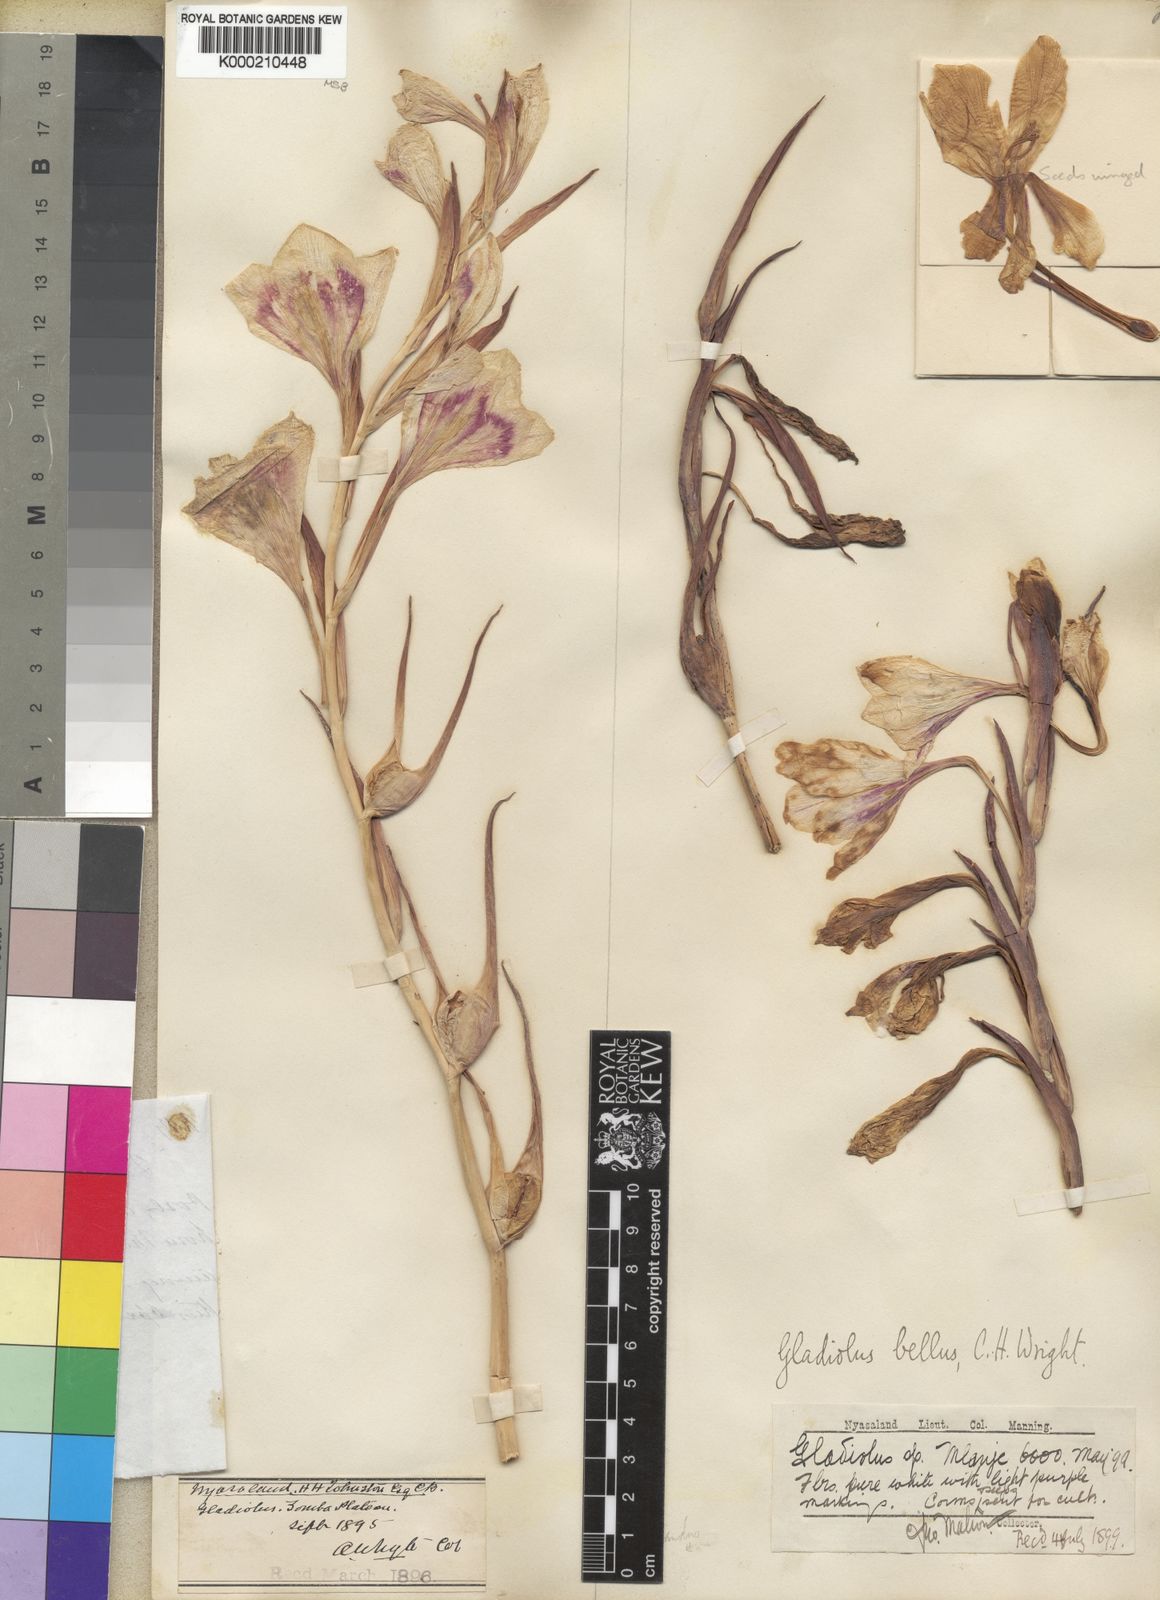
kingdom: Plantae
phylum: Tracheophyta
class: Liliopsida
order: Asparagales
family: Iridaceae
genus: Gladiolus
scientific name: Gladiolus bellus
